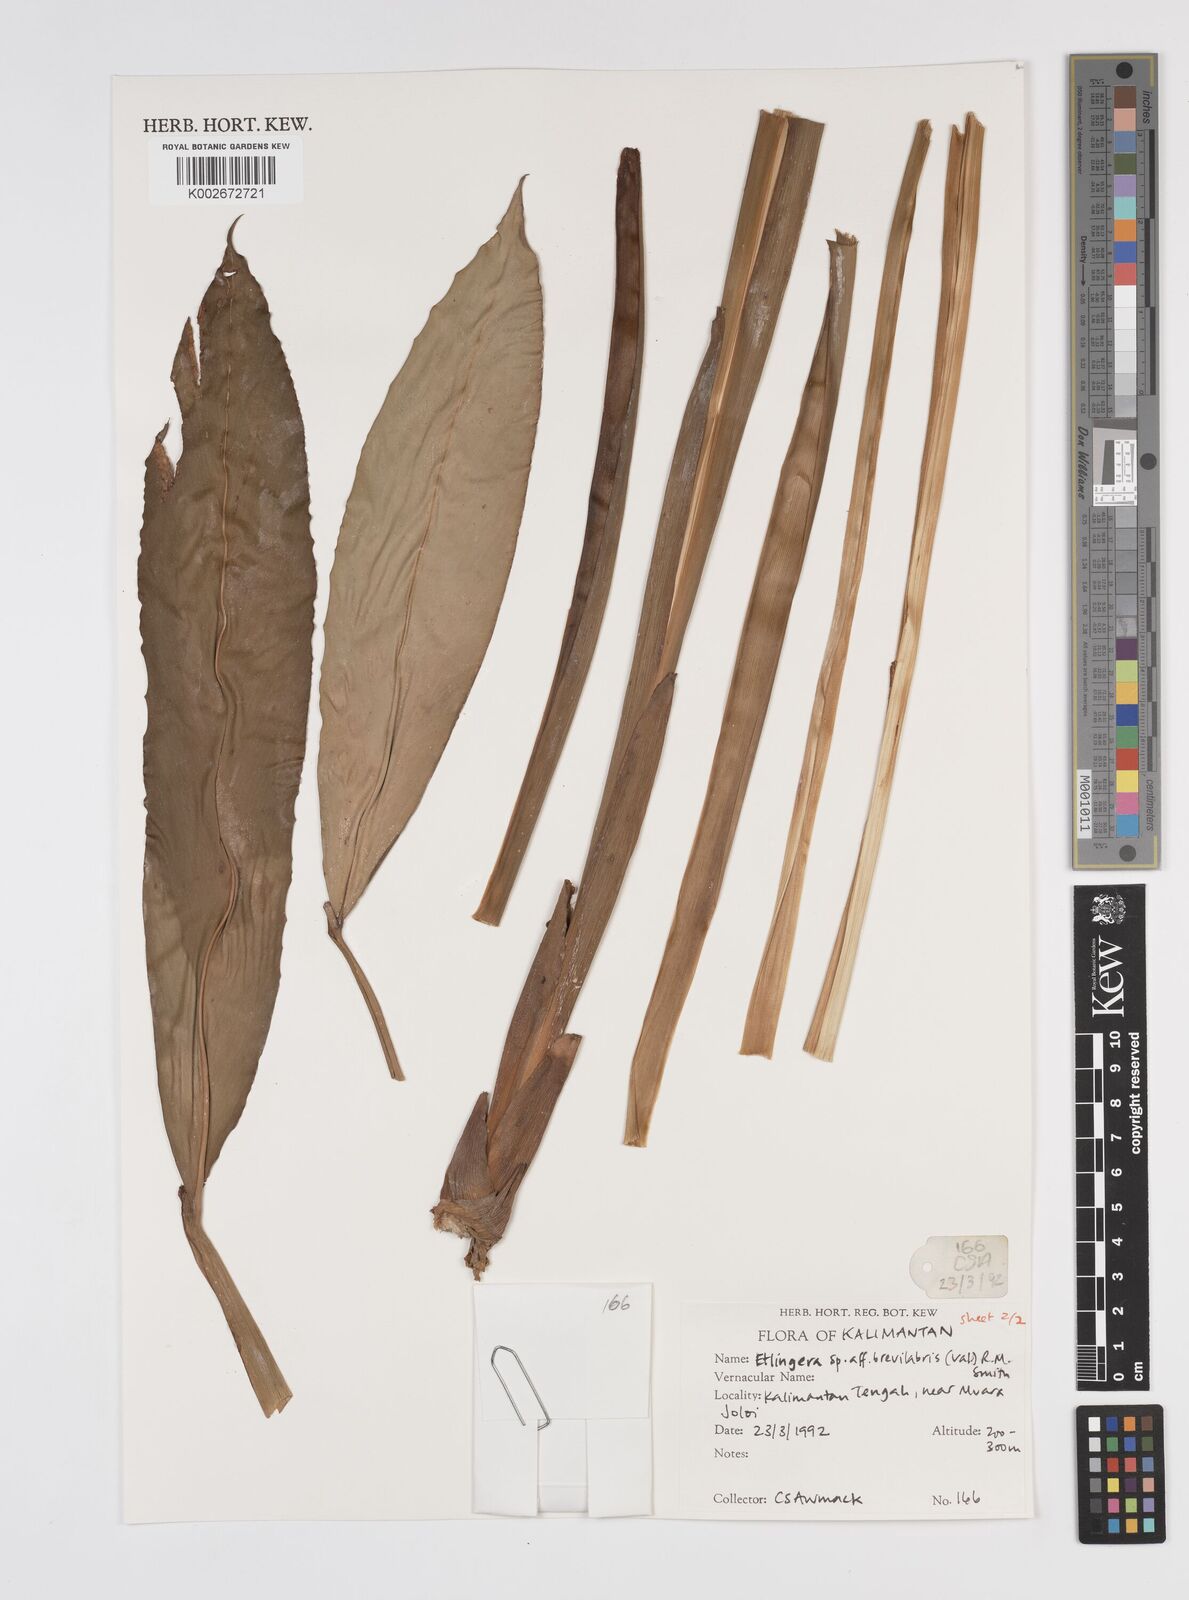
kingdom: Plantae
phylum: Tracheophyta
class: Liliopsida
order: Zingiberales
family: Zingiberaceae
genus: Etlingera
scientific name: Etlingera nasuta
